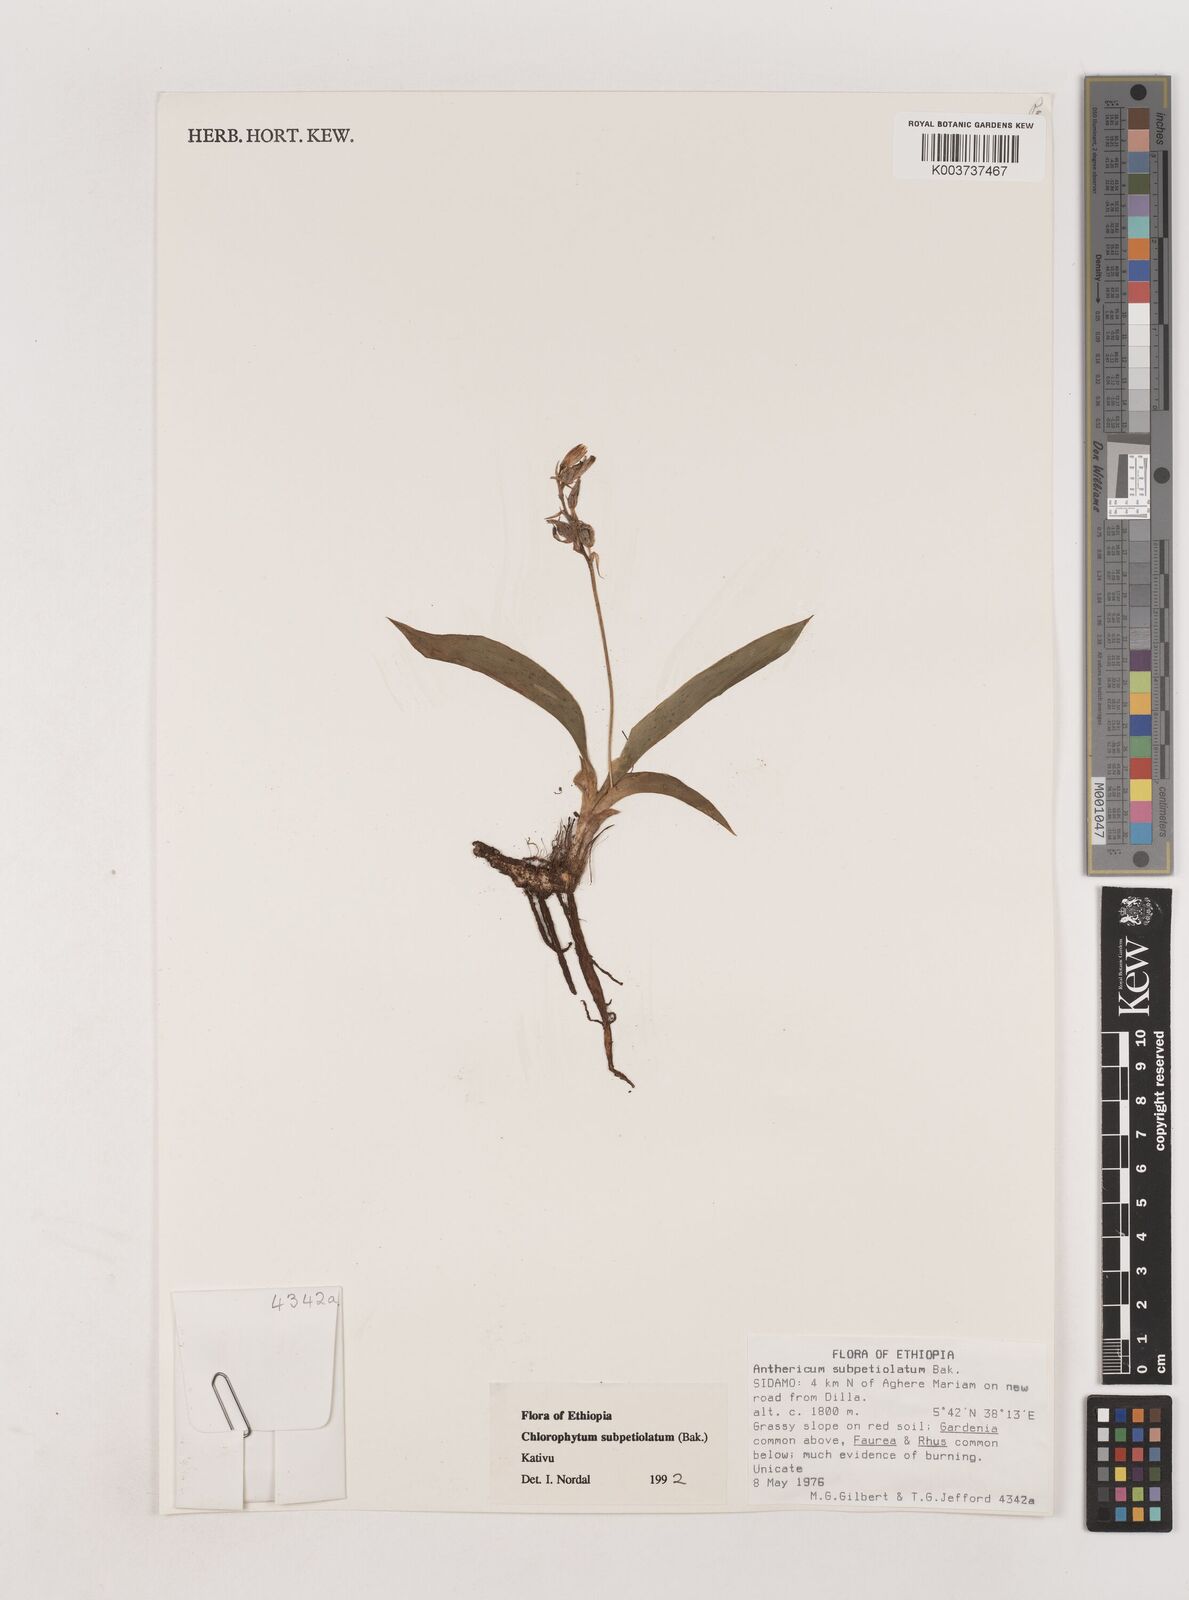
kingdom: Plantae
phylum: Tracheophyta
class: Liliopsida
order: Asparagales
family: Asparagaceae
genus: Chlorophytum
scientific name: Chlorophytum subpetiolatum
